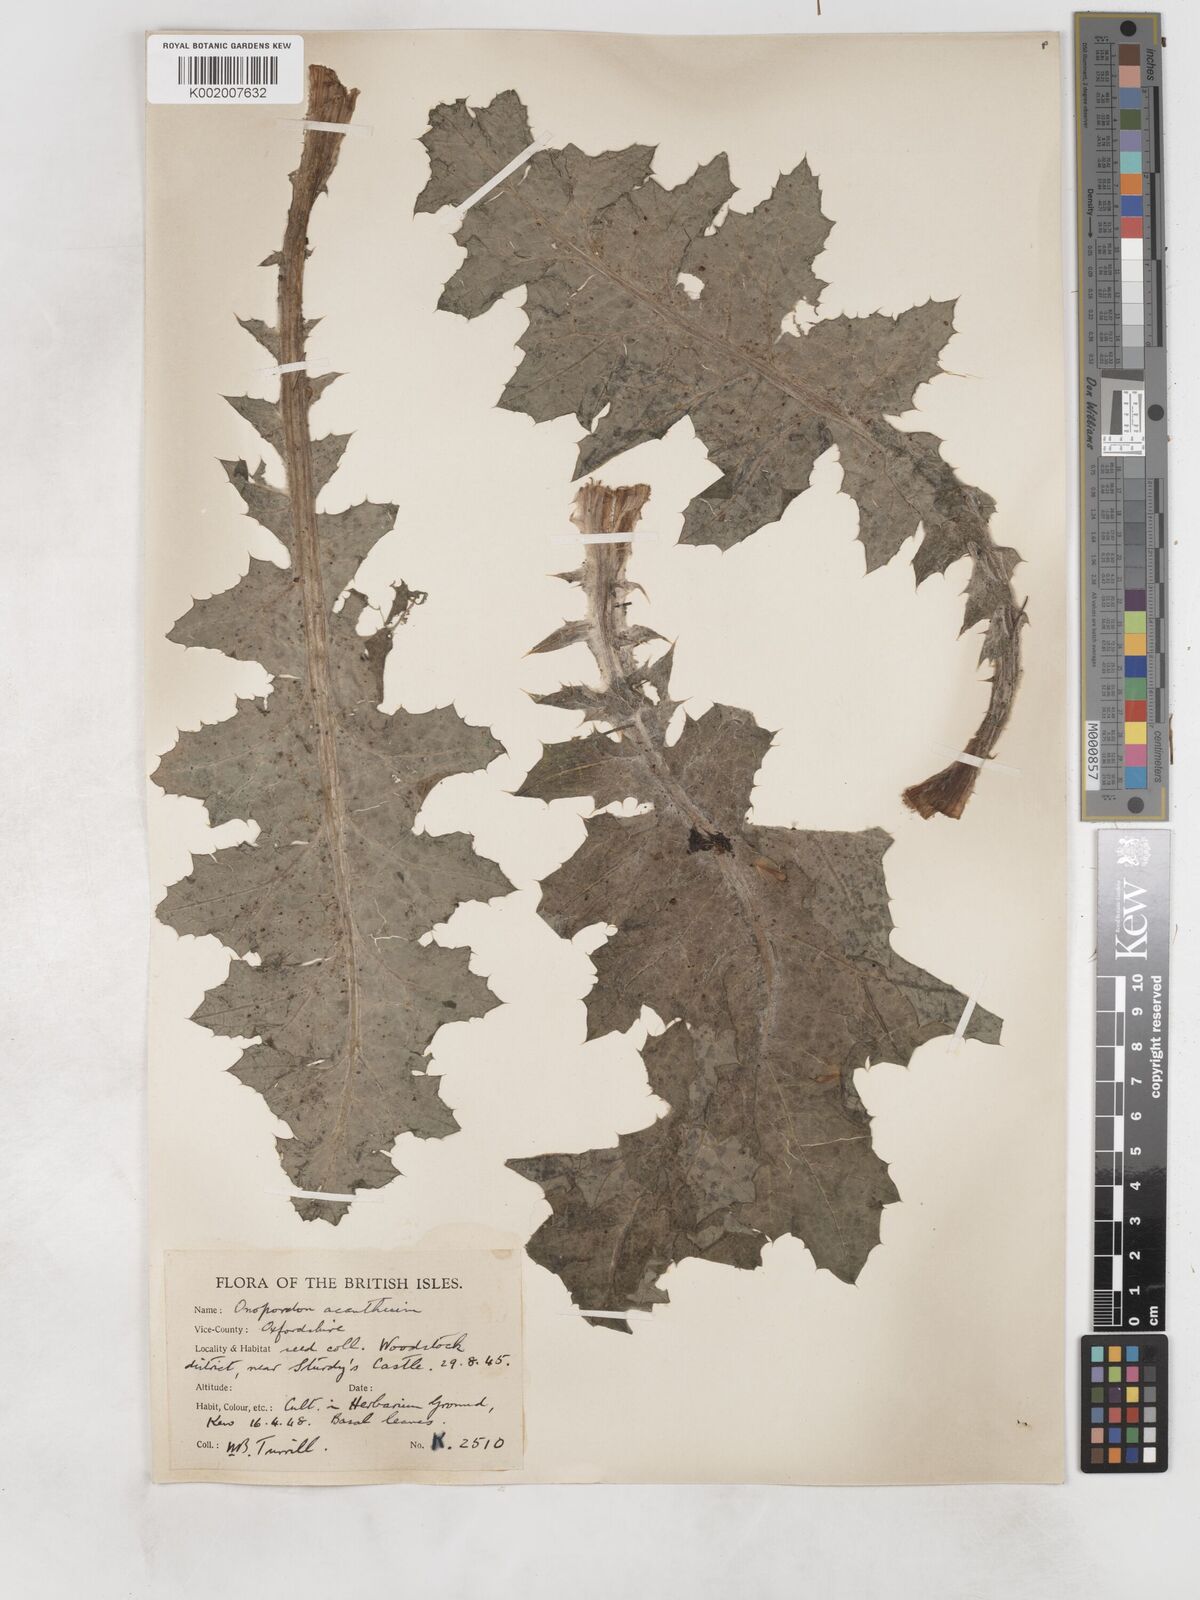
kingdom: Plantae
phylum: Tracheophyta
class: Magnoliopsida
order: Asterales
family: Asteraceae
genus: Onopordum
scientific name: Onopordum acanthium
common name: Scotch thistle
